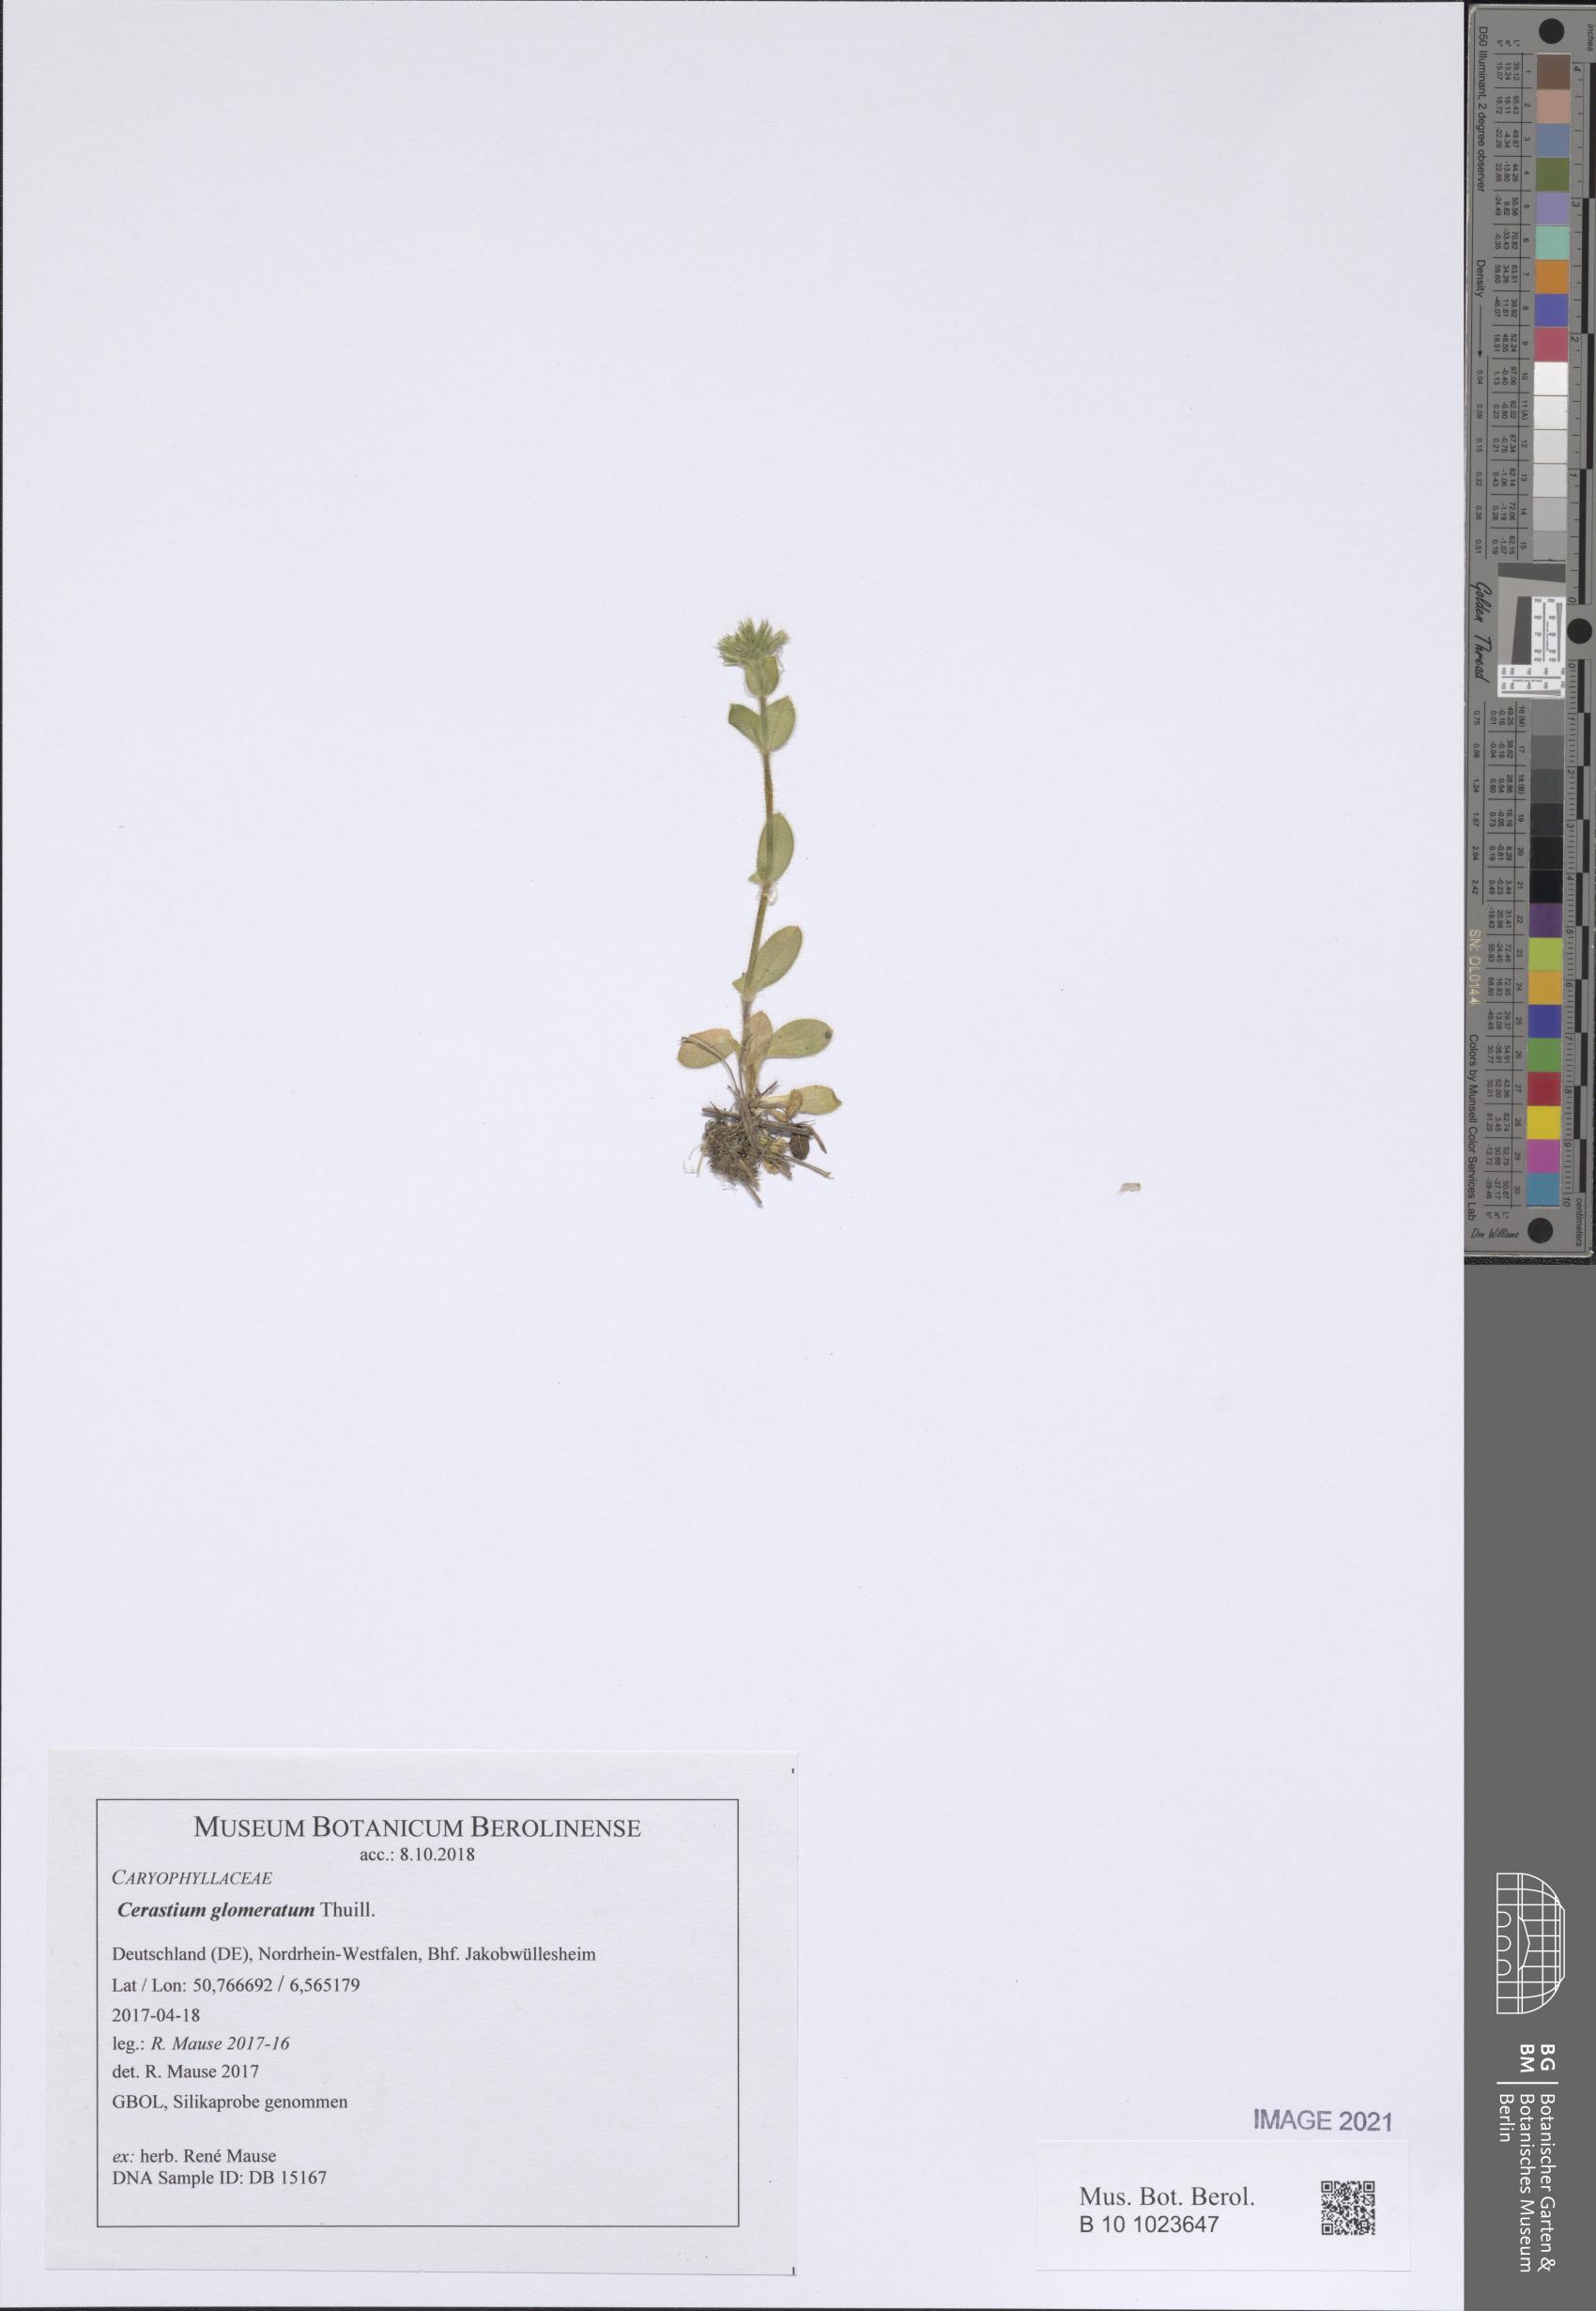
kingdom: Plantae
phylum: Tracheophyta
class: Magnoliopsida
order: Caryophyllales
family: Caryophyllaceae
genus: Cerastium
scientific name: Cerastium glomeratum
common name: Sticky chickweed
